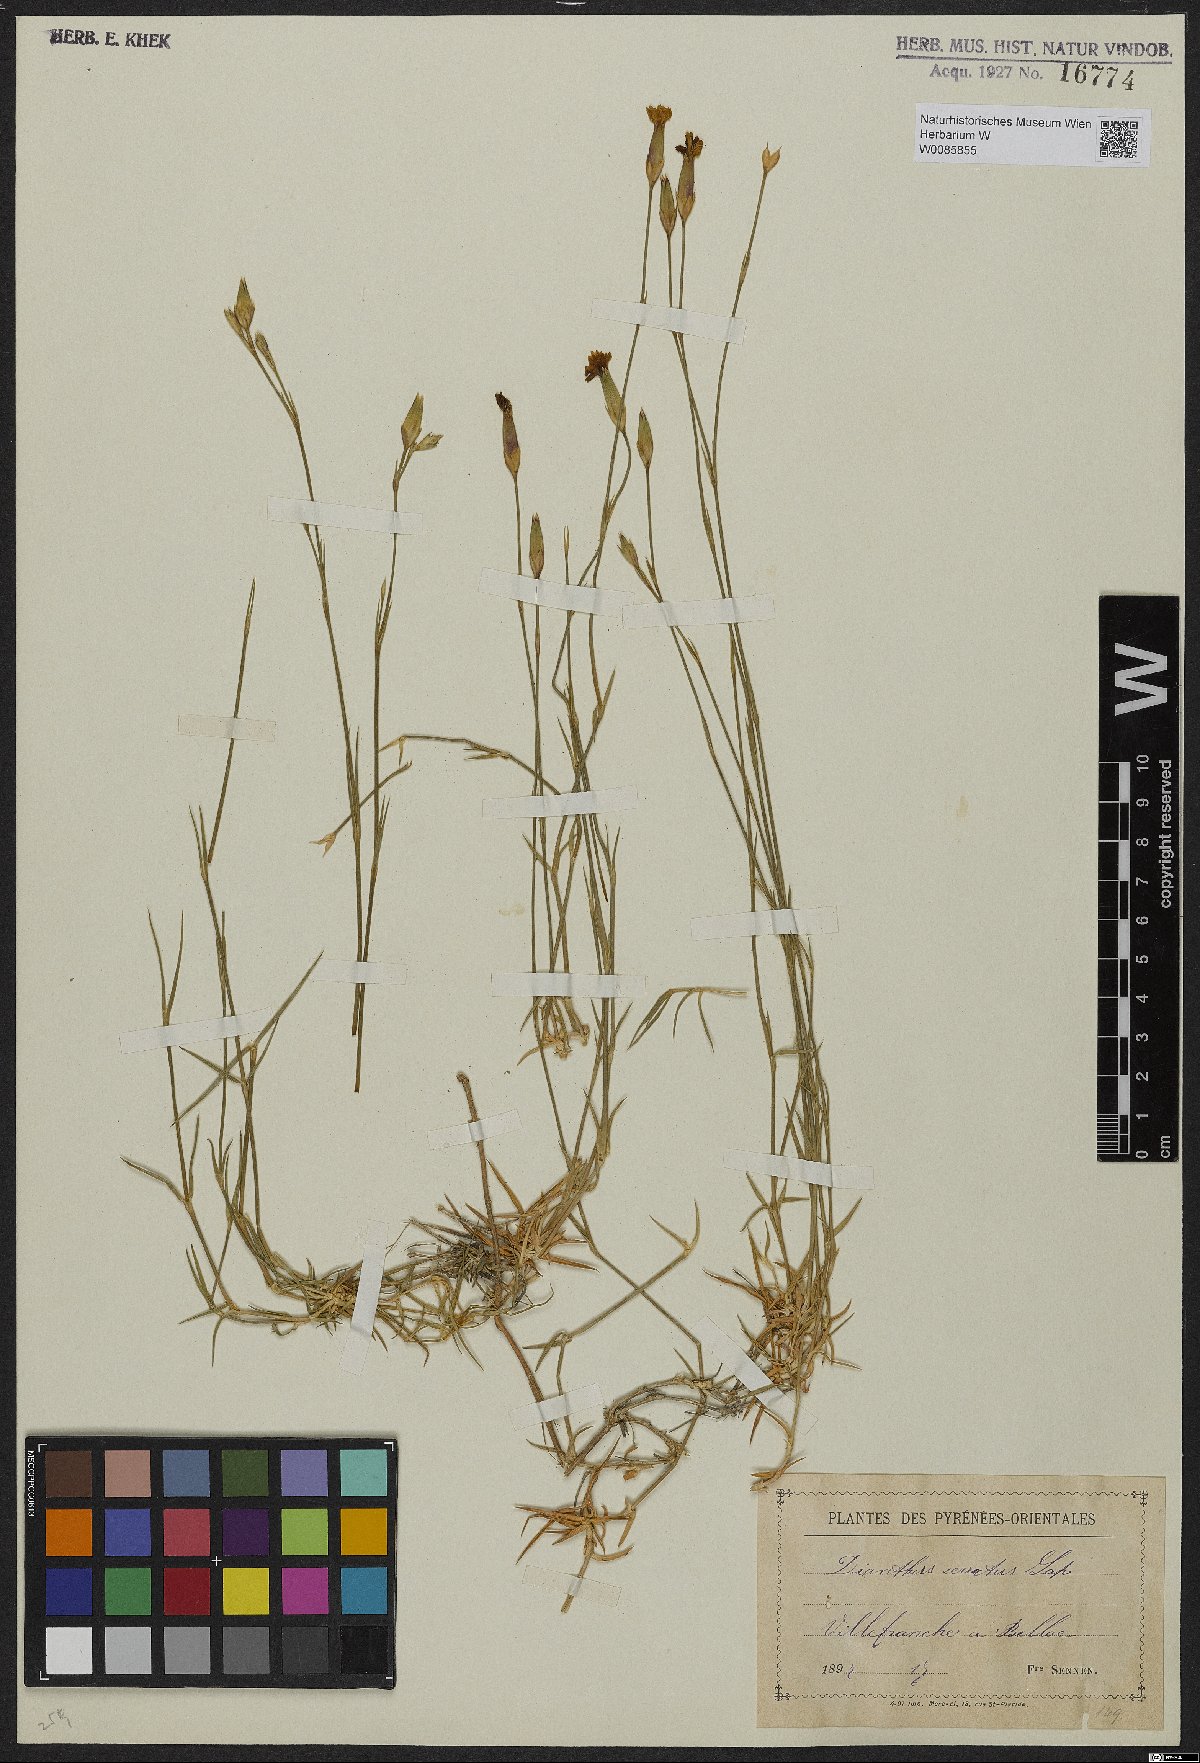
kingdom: Plantae
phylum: Tracheophyta
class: Magnoliopsida
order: Caryophyllales
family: Caryophyllaceae
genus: Dianthus
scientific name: Dianthus pungens
